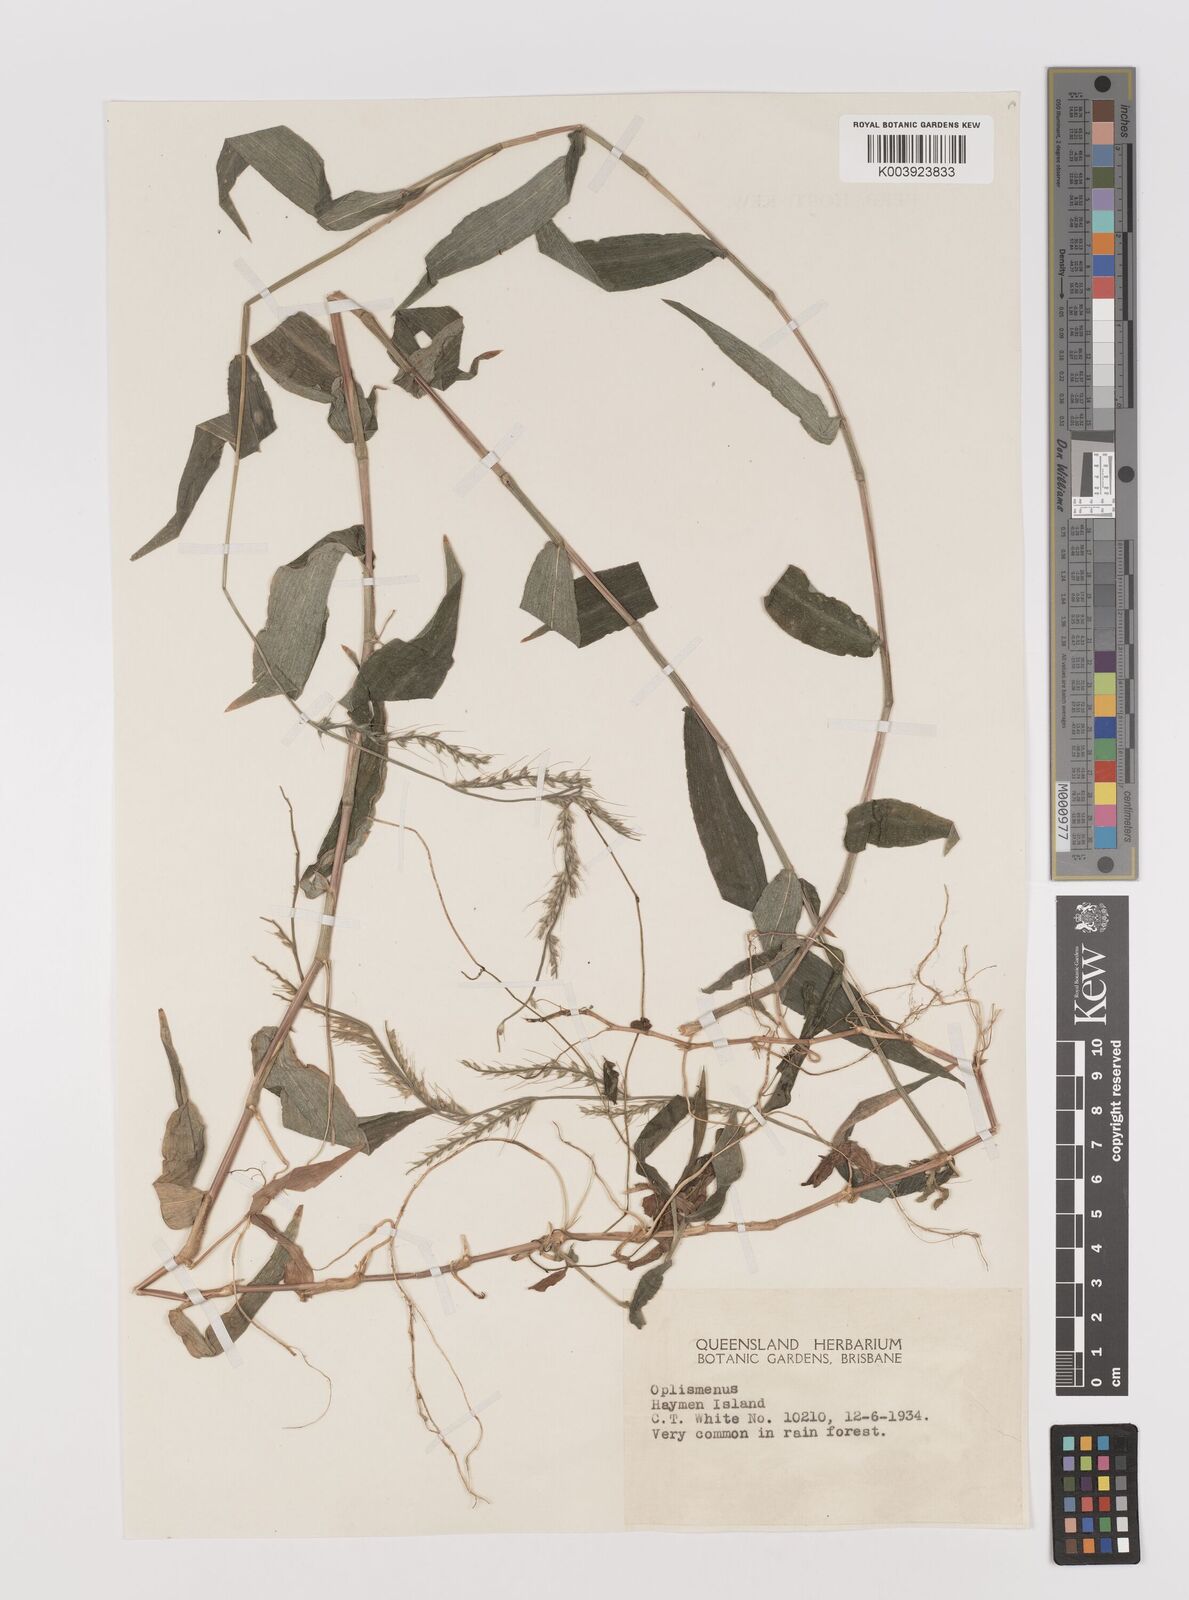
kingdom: Plantae
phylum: Tracheophyta
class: Liliopsida
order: Poales
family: Poaceae
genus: Oplismenus
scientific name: Oplismenus compositus
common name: Running mountain grass
